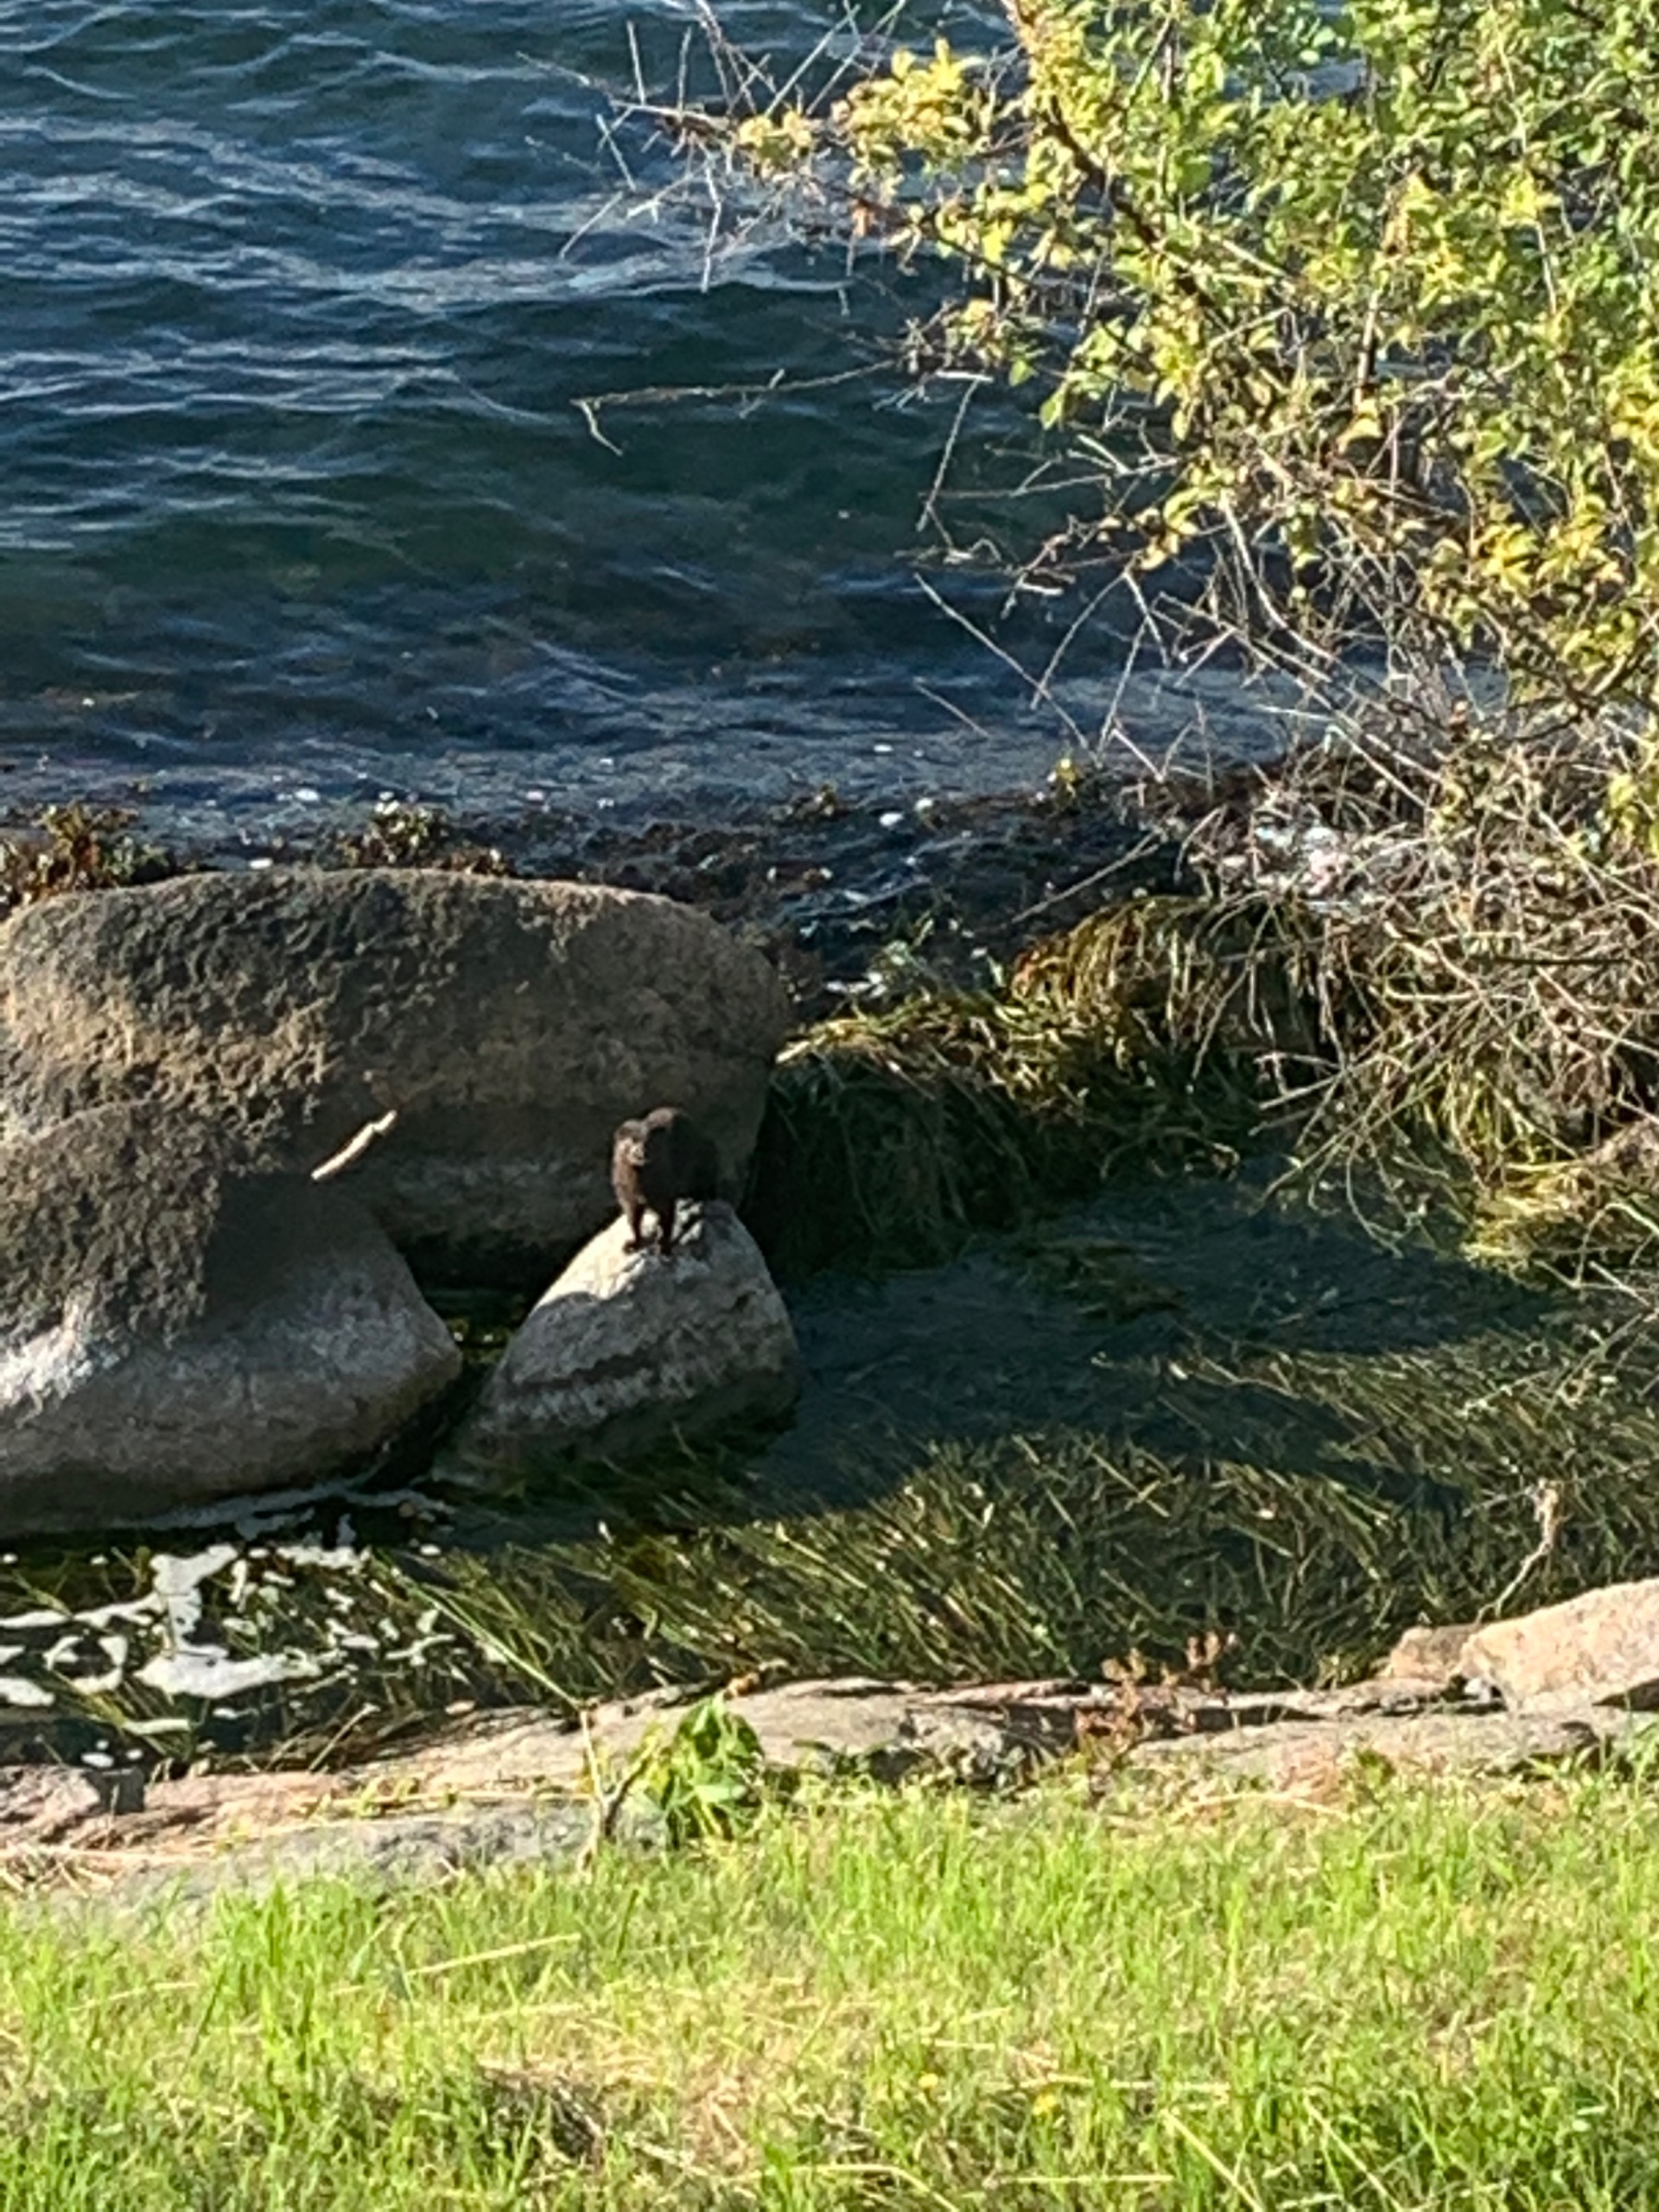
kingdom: Animalia
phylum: Chordata
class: Mammalia
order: Carnivora
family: Mustelidae
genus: Mustela
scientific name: Mustela vison
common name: Mink
